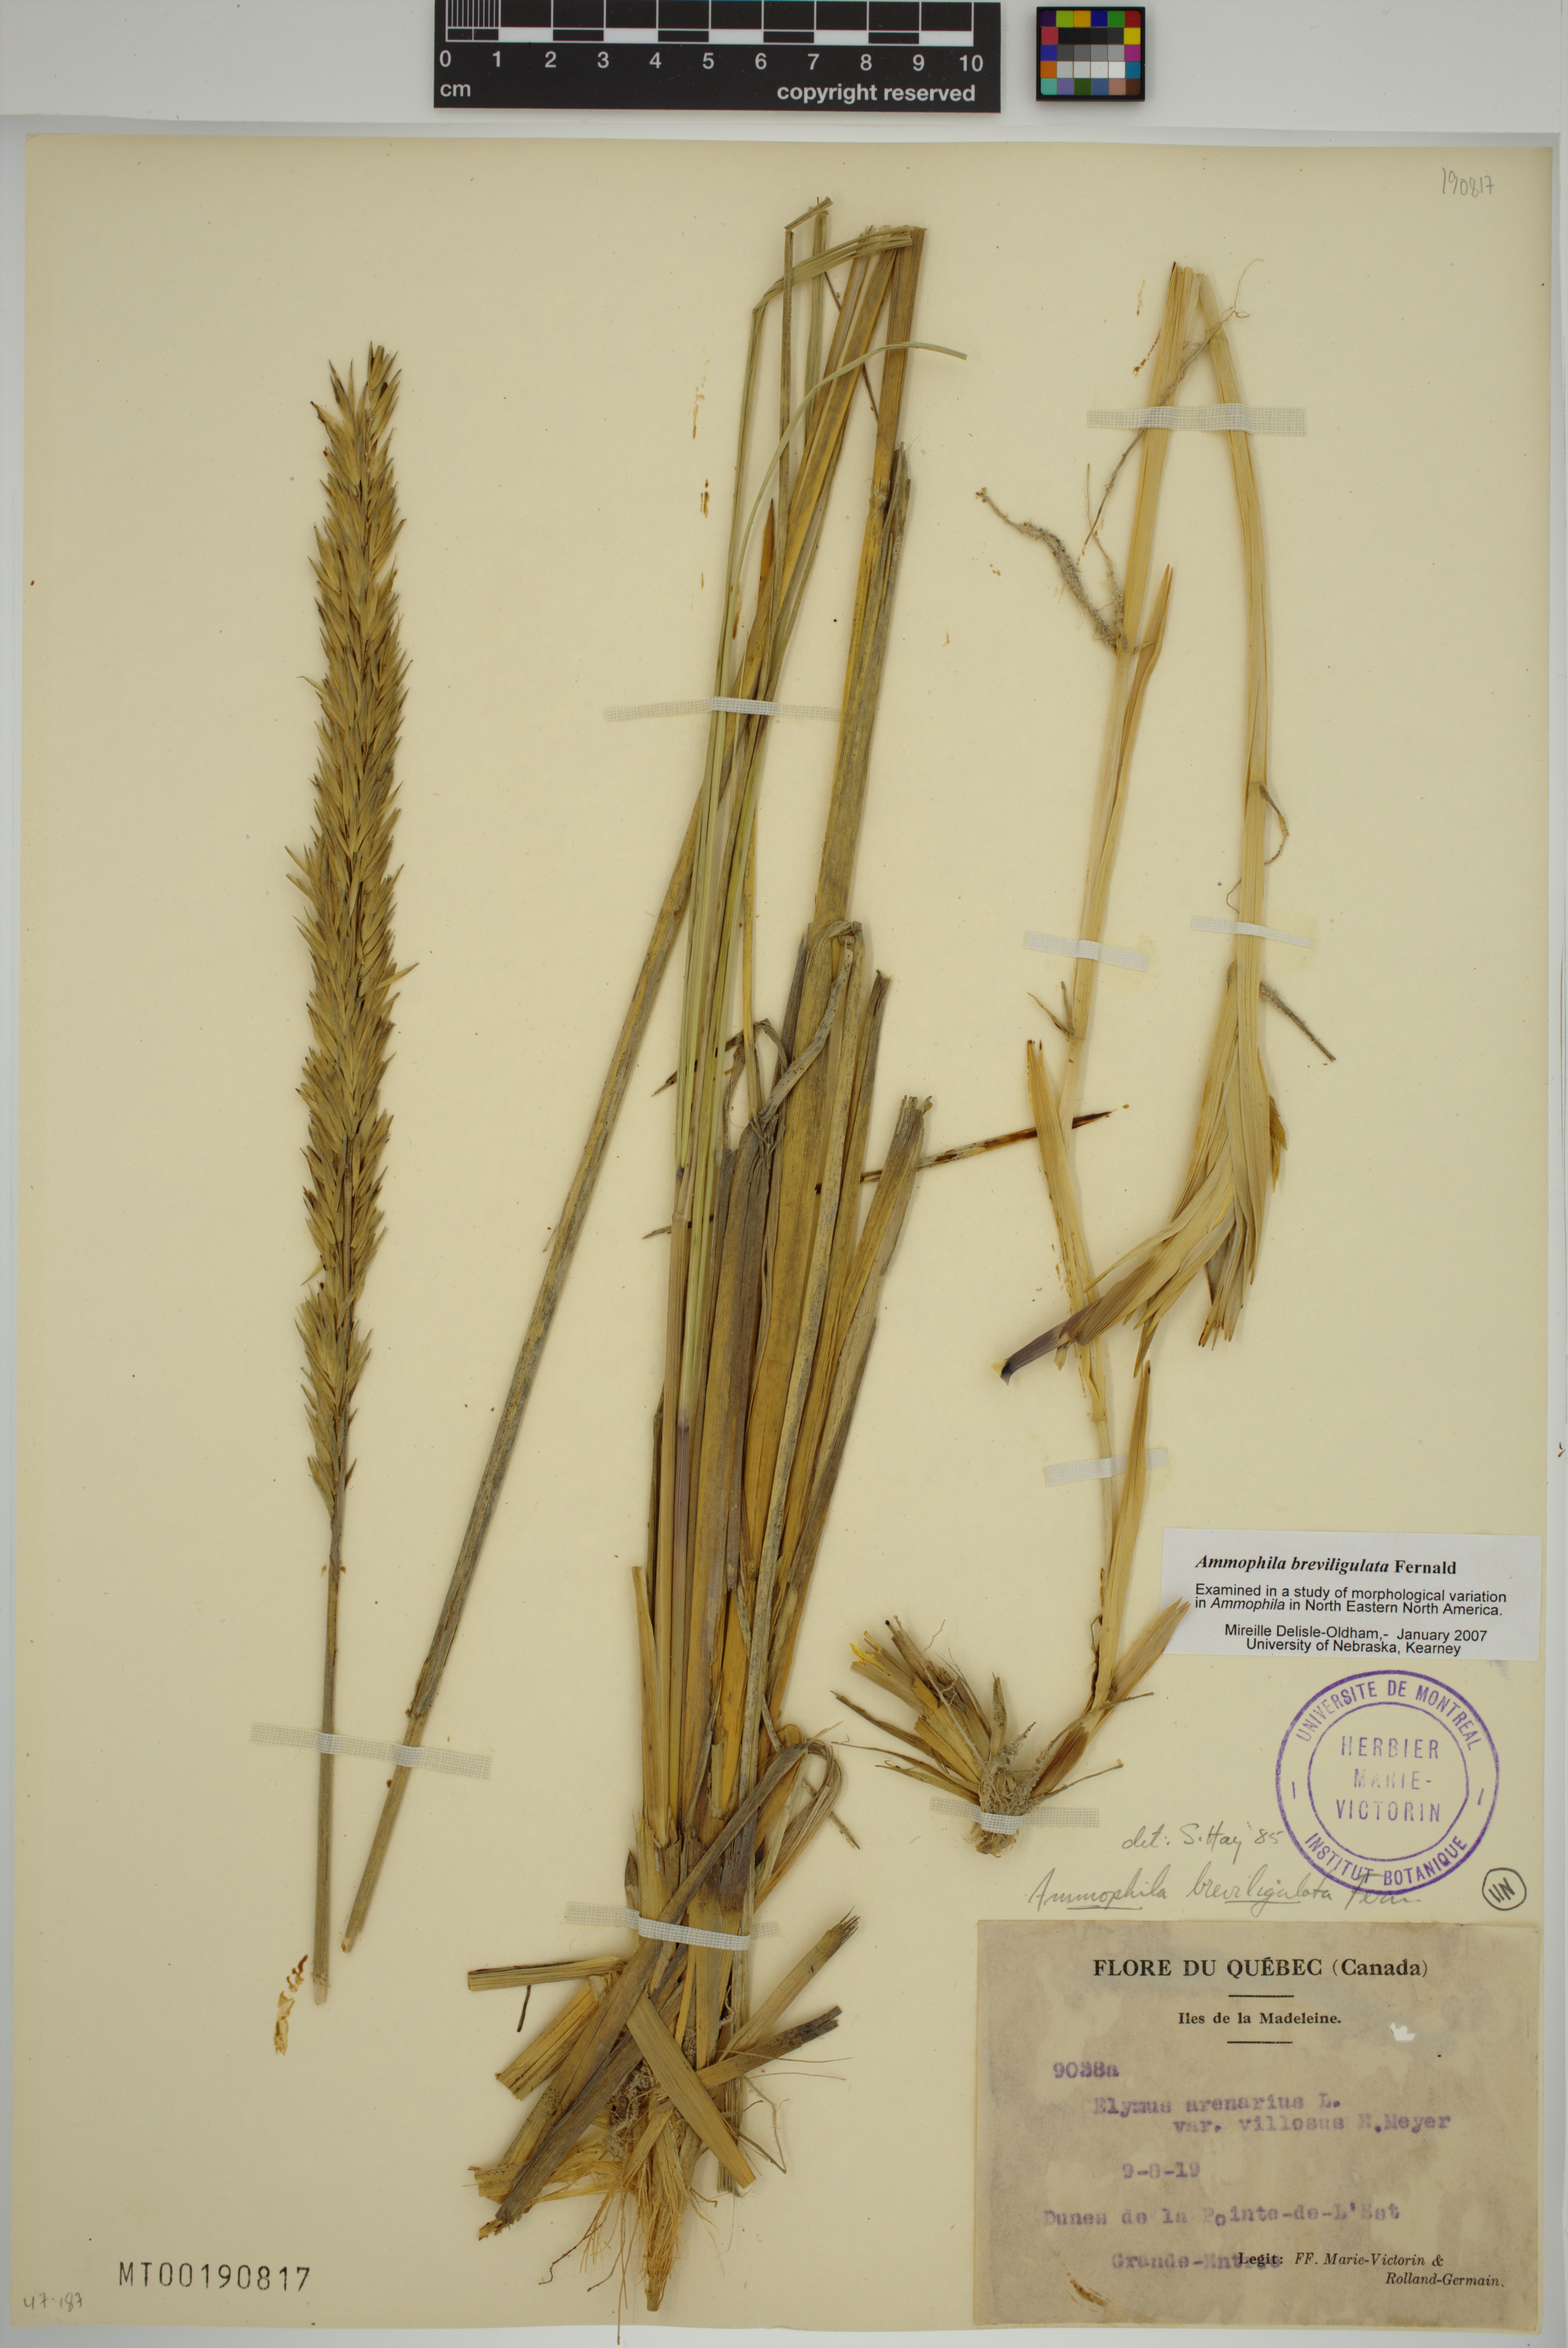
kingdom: Plantae
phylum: Tracheophyta
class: Liliopsida
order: Poales
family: Poaceae
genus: Calamagrostis
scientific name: Calamagrostis breviligulata
